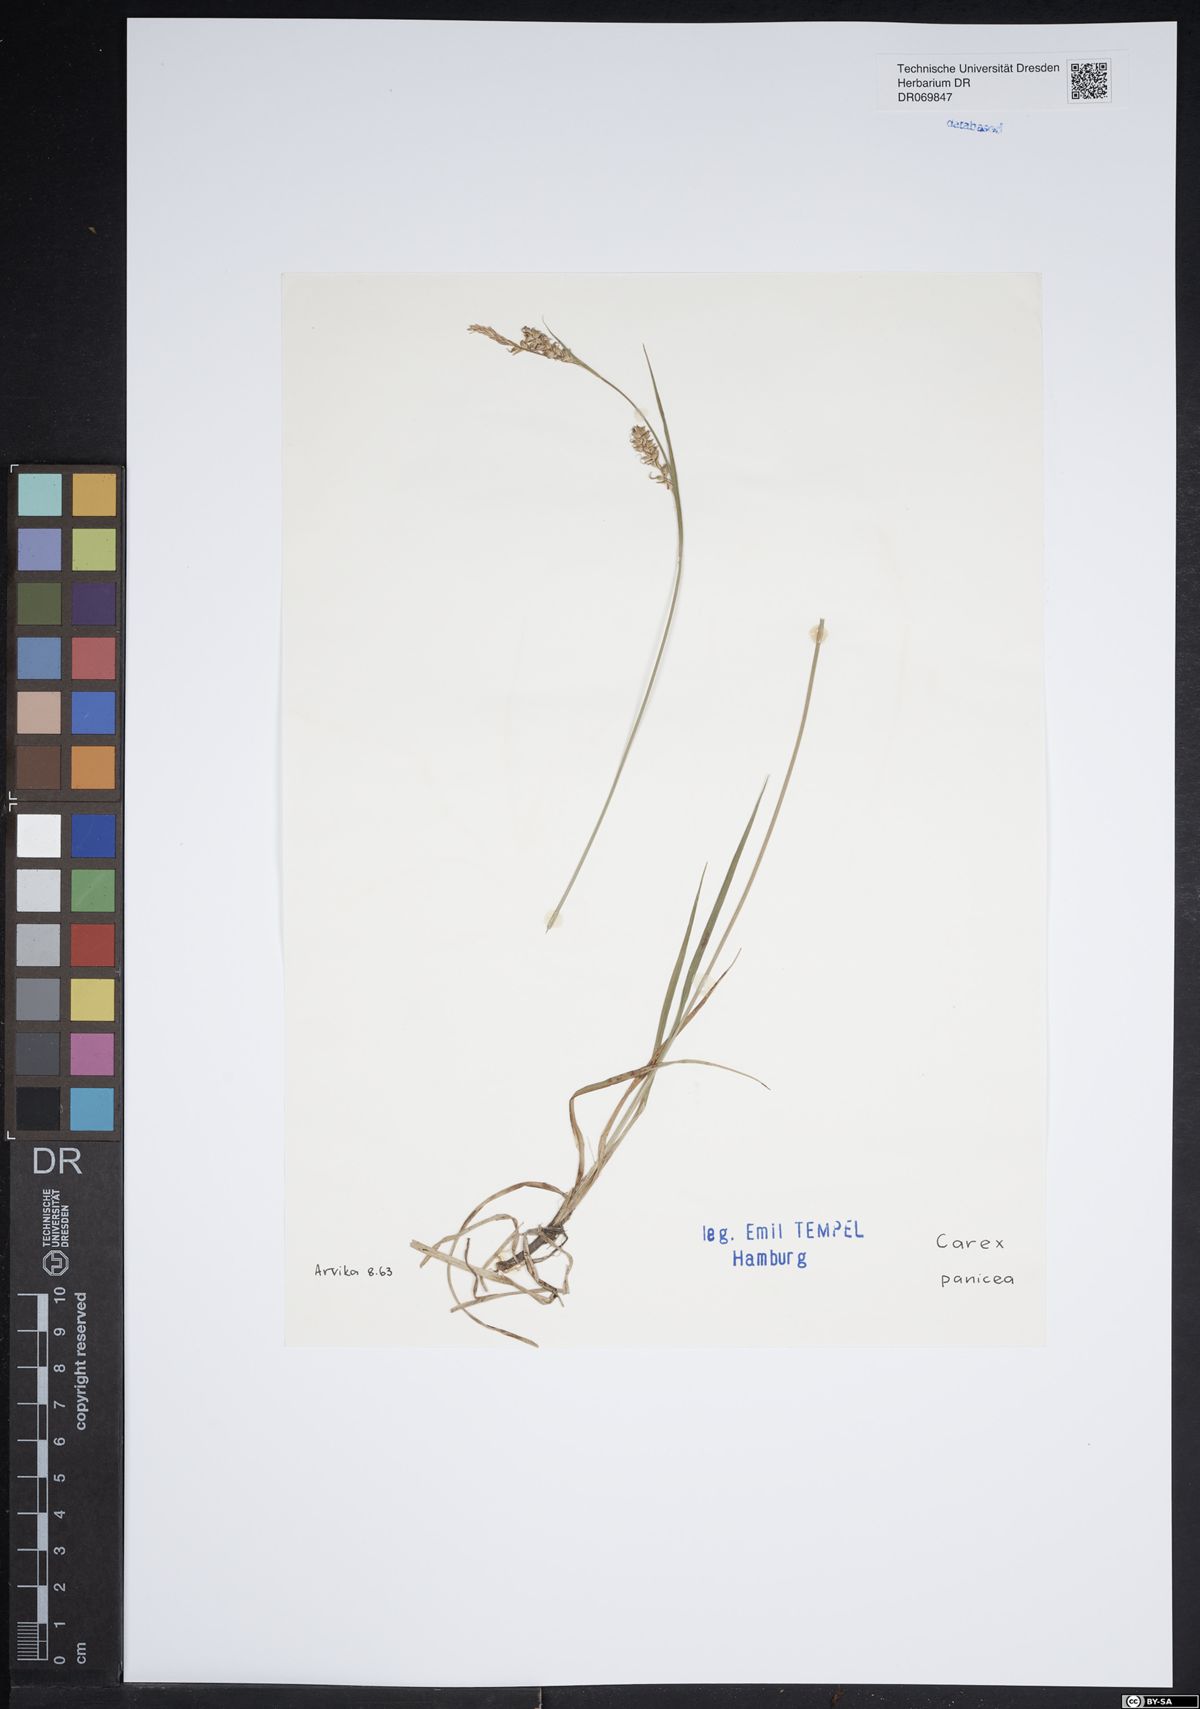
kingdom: Plantae
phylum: Tracheophyta
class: Liliopsida
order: Poales
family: Cyperaceae
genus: Carex
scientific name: Carex panicea
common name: Carnation sedge
